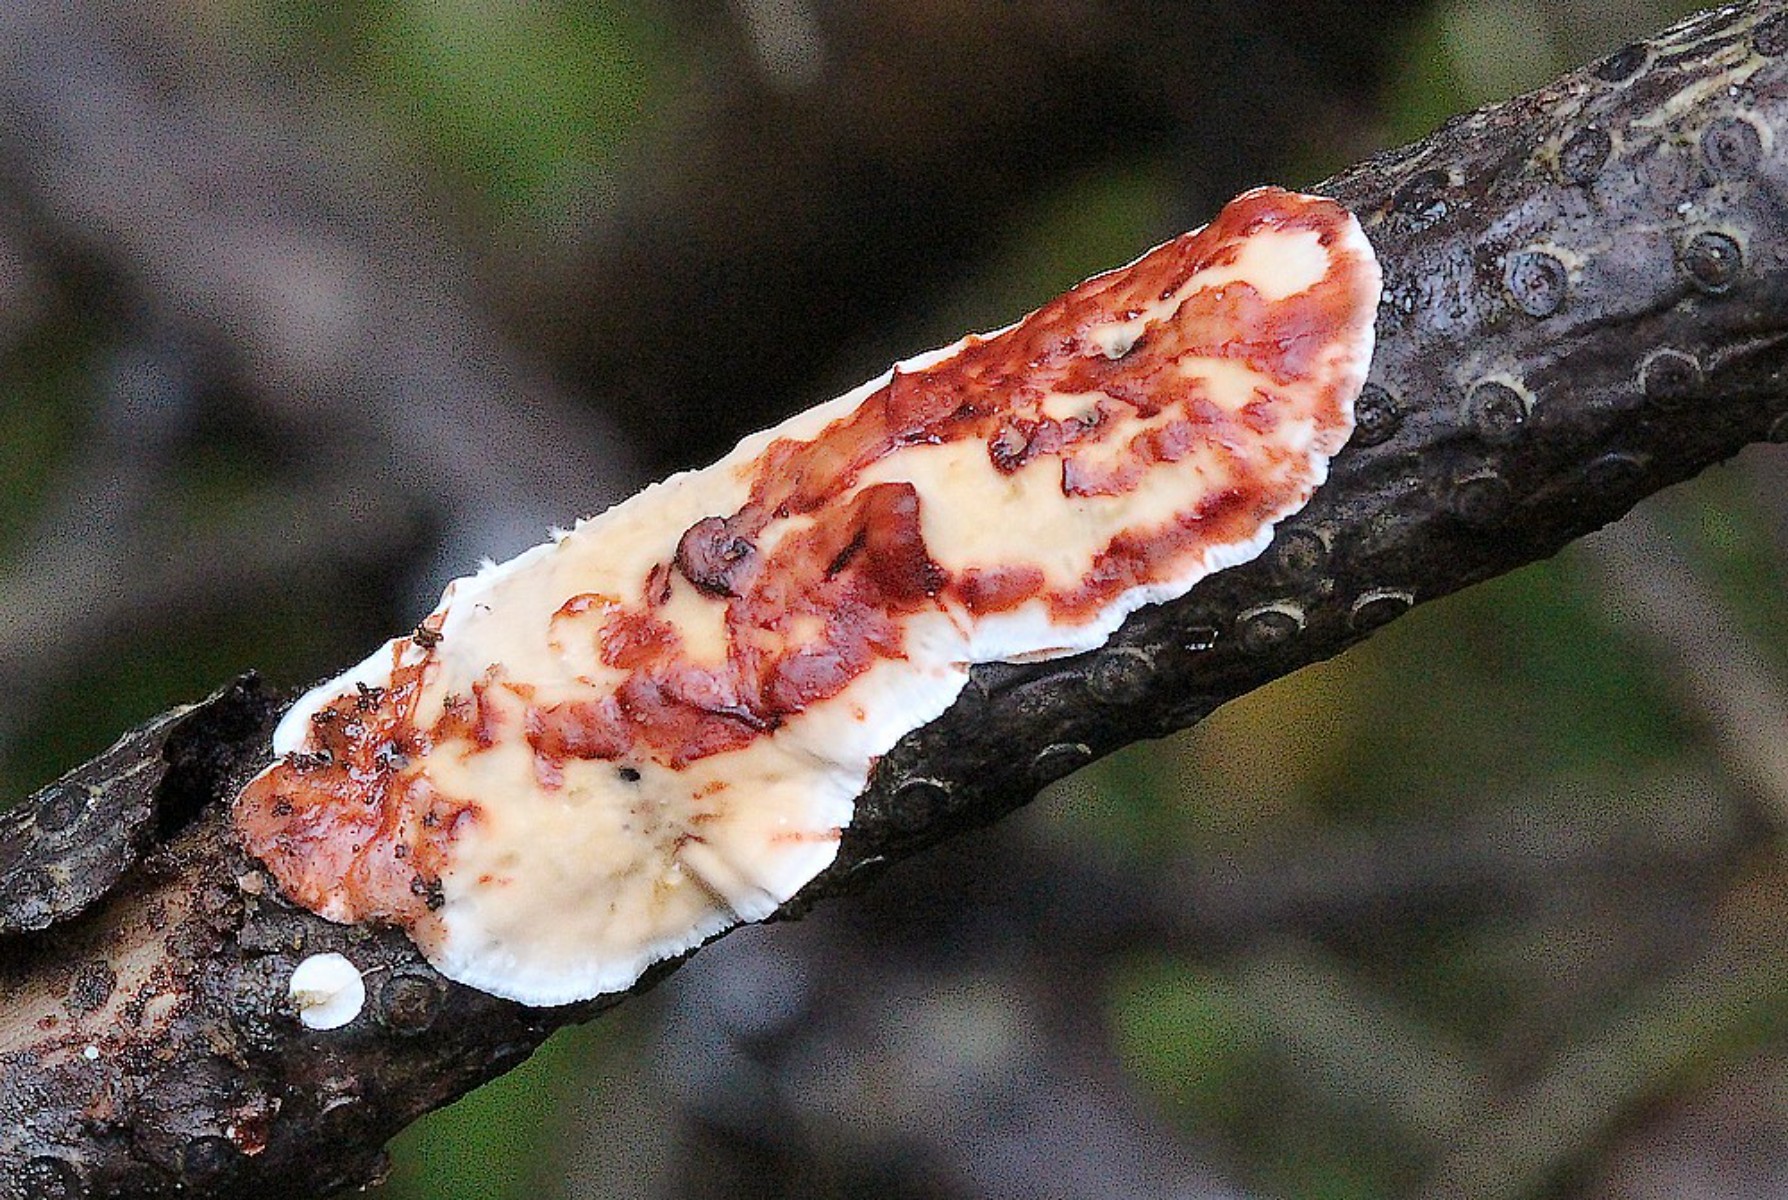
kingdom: Fungi
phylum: Basidiomycota
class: Agaricomycetes
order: Russulales
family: Stereaceae
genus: Stereum
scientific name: Stereum sanguinolentum
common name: blødende lædersvamp
